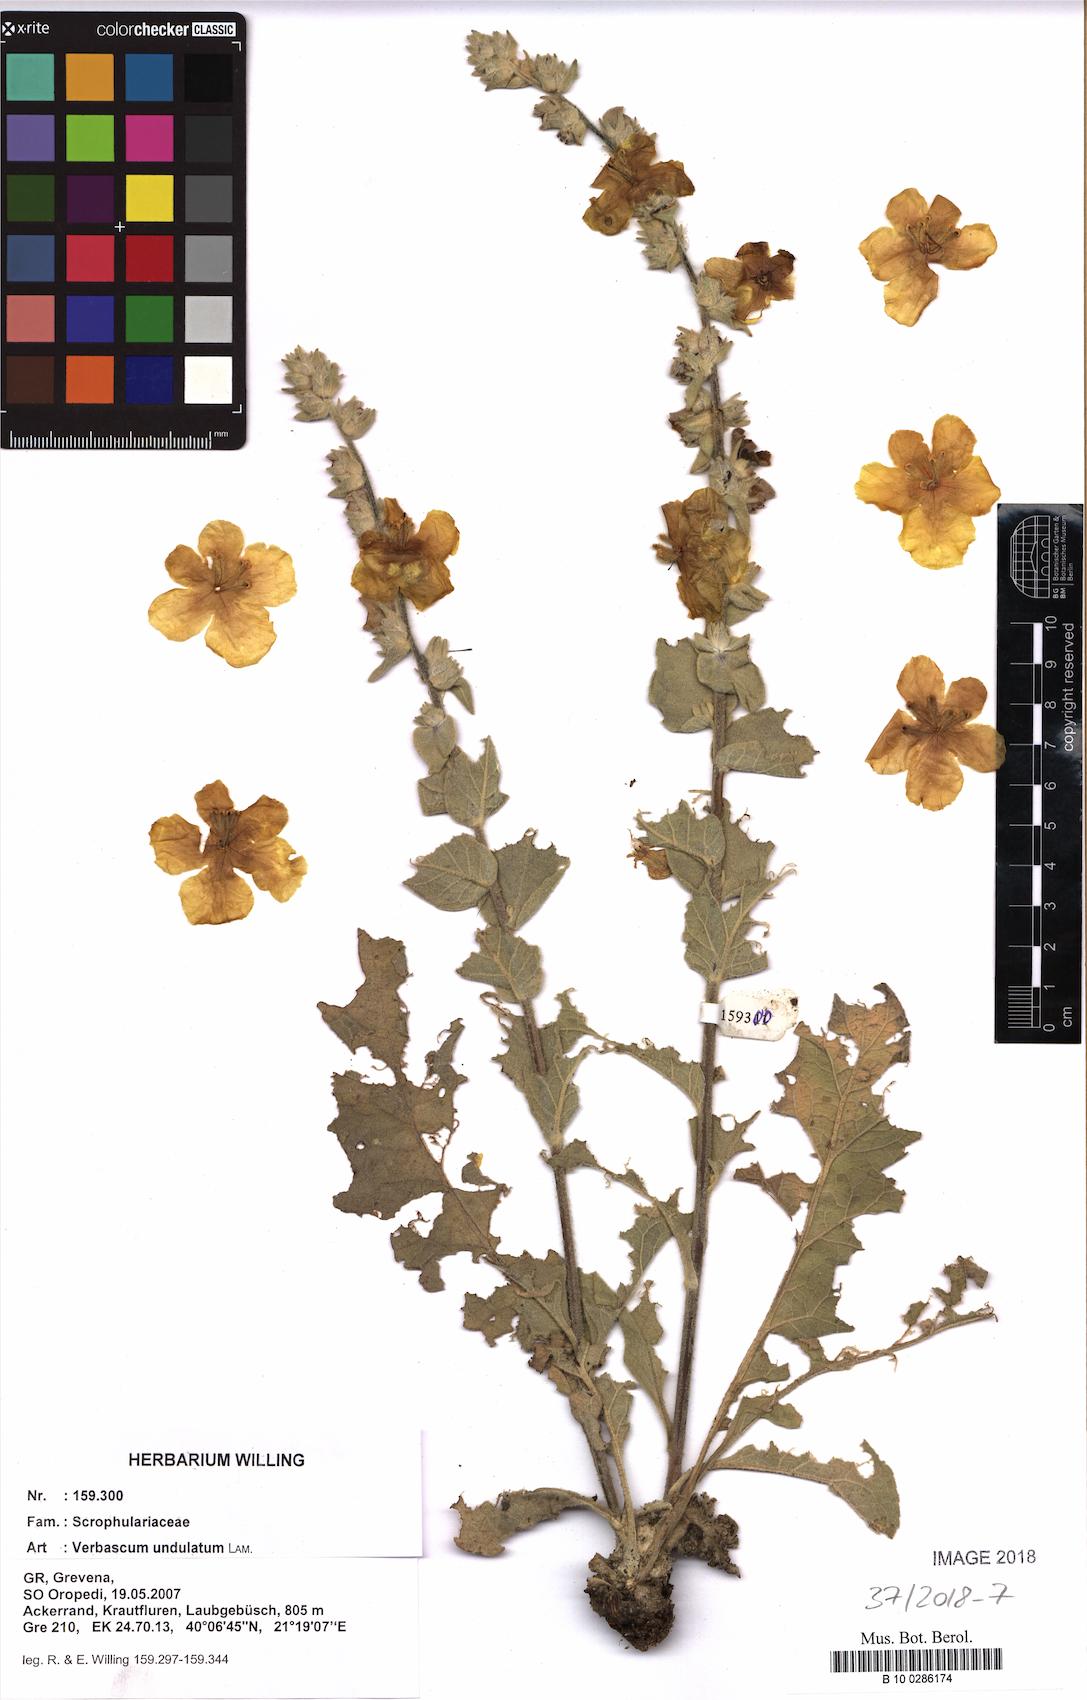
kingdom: Plantae
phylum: Tracheophyta
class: Magnoliopsida
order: Lamiales
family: Scrophulariaceae
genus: Verbascum
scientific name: Verbascum undulatum
